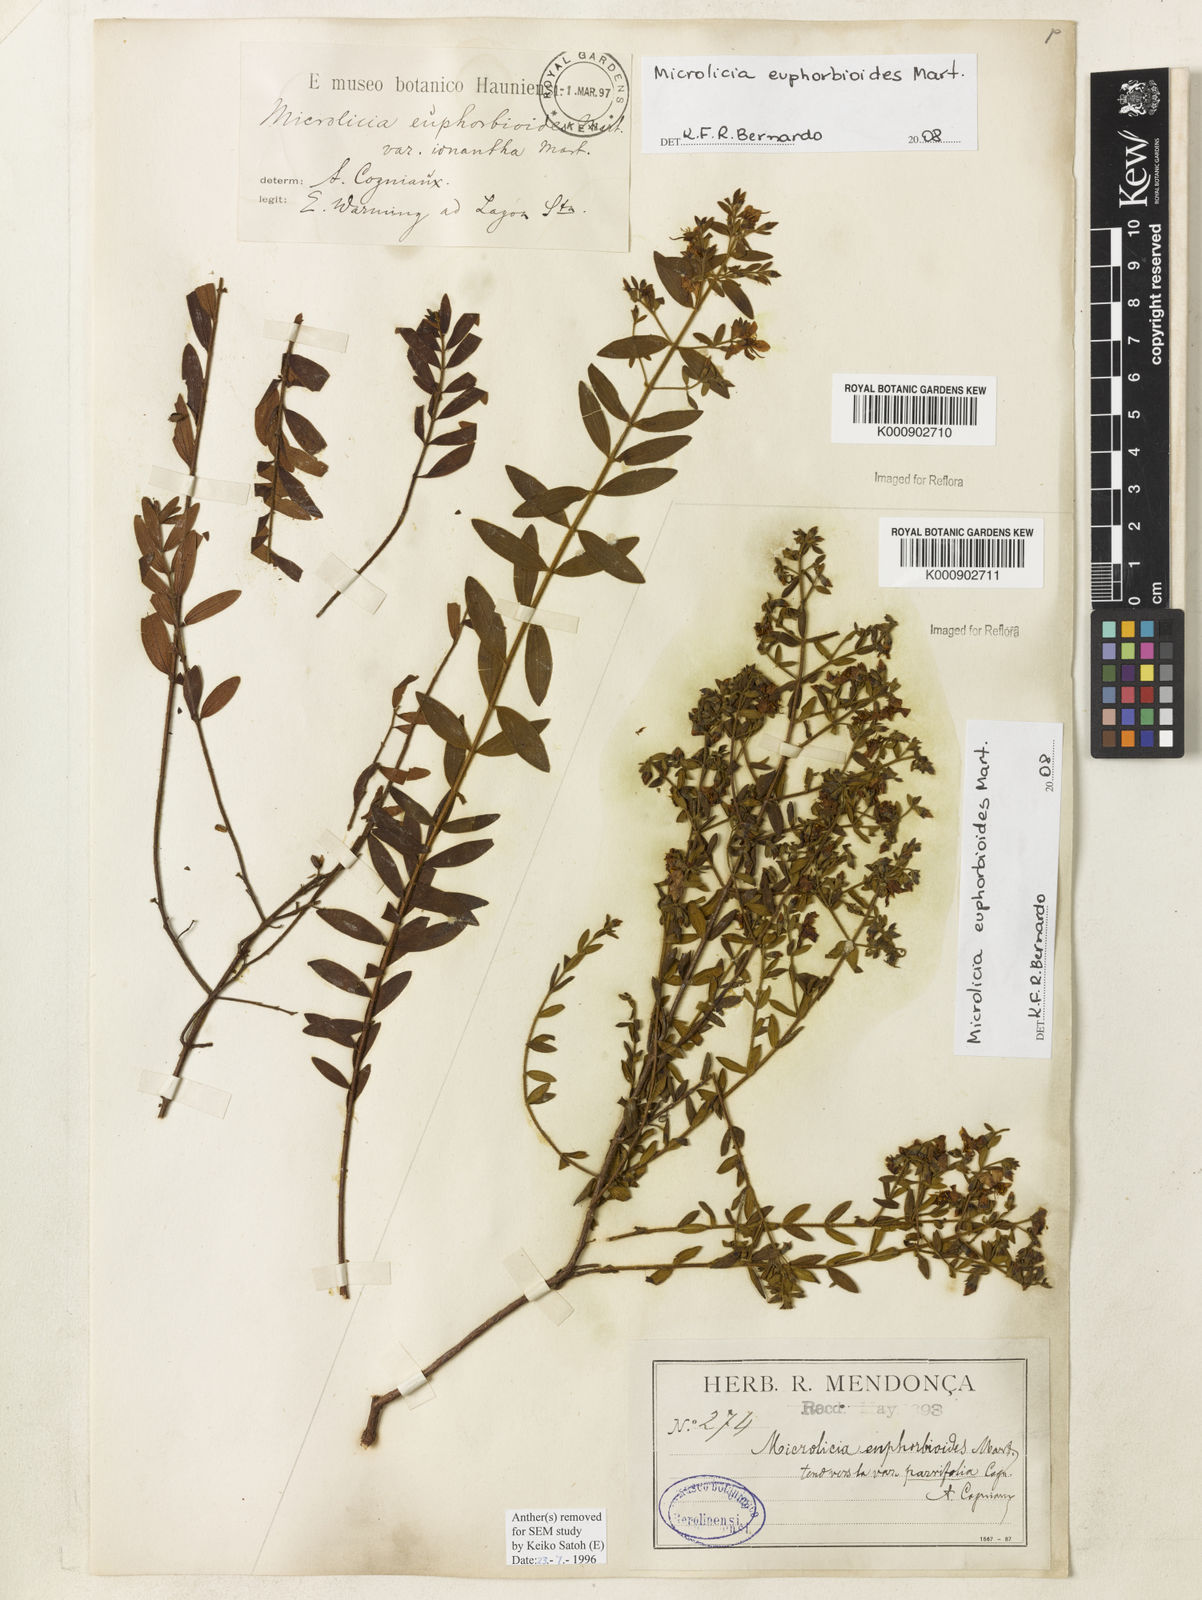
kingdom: Plantae
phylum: Tracheophyta
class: Magnoliopsida
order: Myrtales
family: Melastomataceae
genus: Microlicia
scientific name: Microlicia euphorbioides
